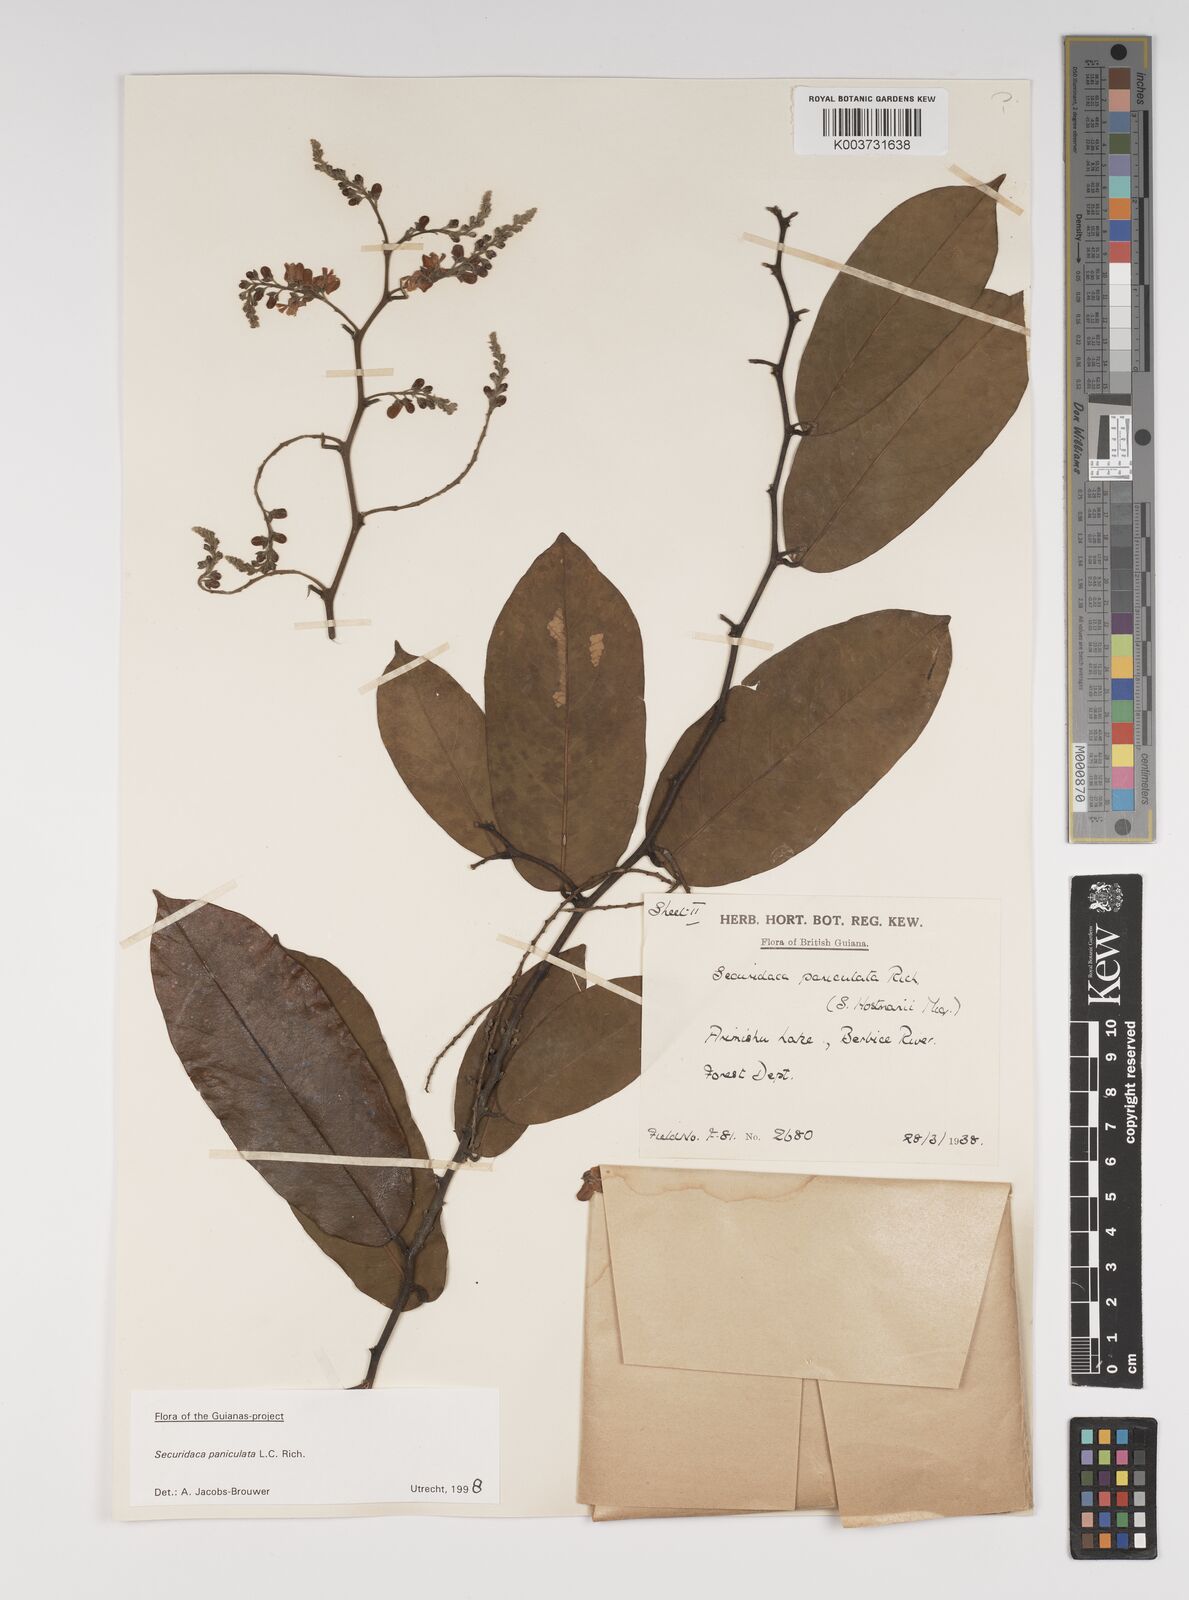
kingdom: Plantae
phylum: Tracheophyta
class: Magnoliopsida
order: Fabales
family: Polygalaceae
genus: Securidaca
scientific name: Securidaca paniculata
